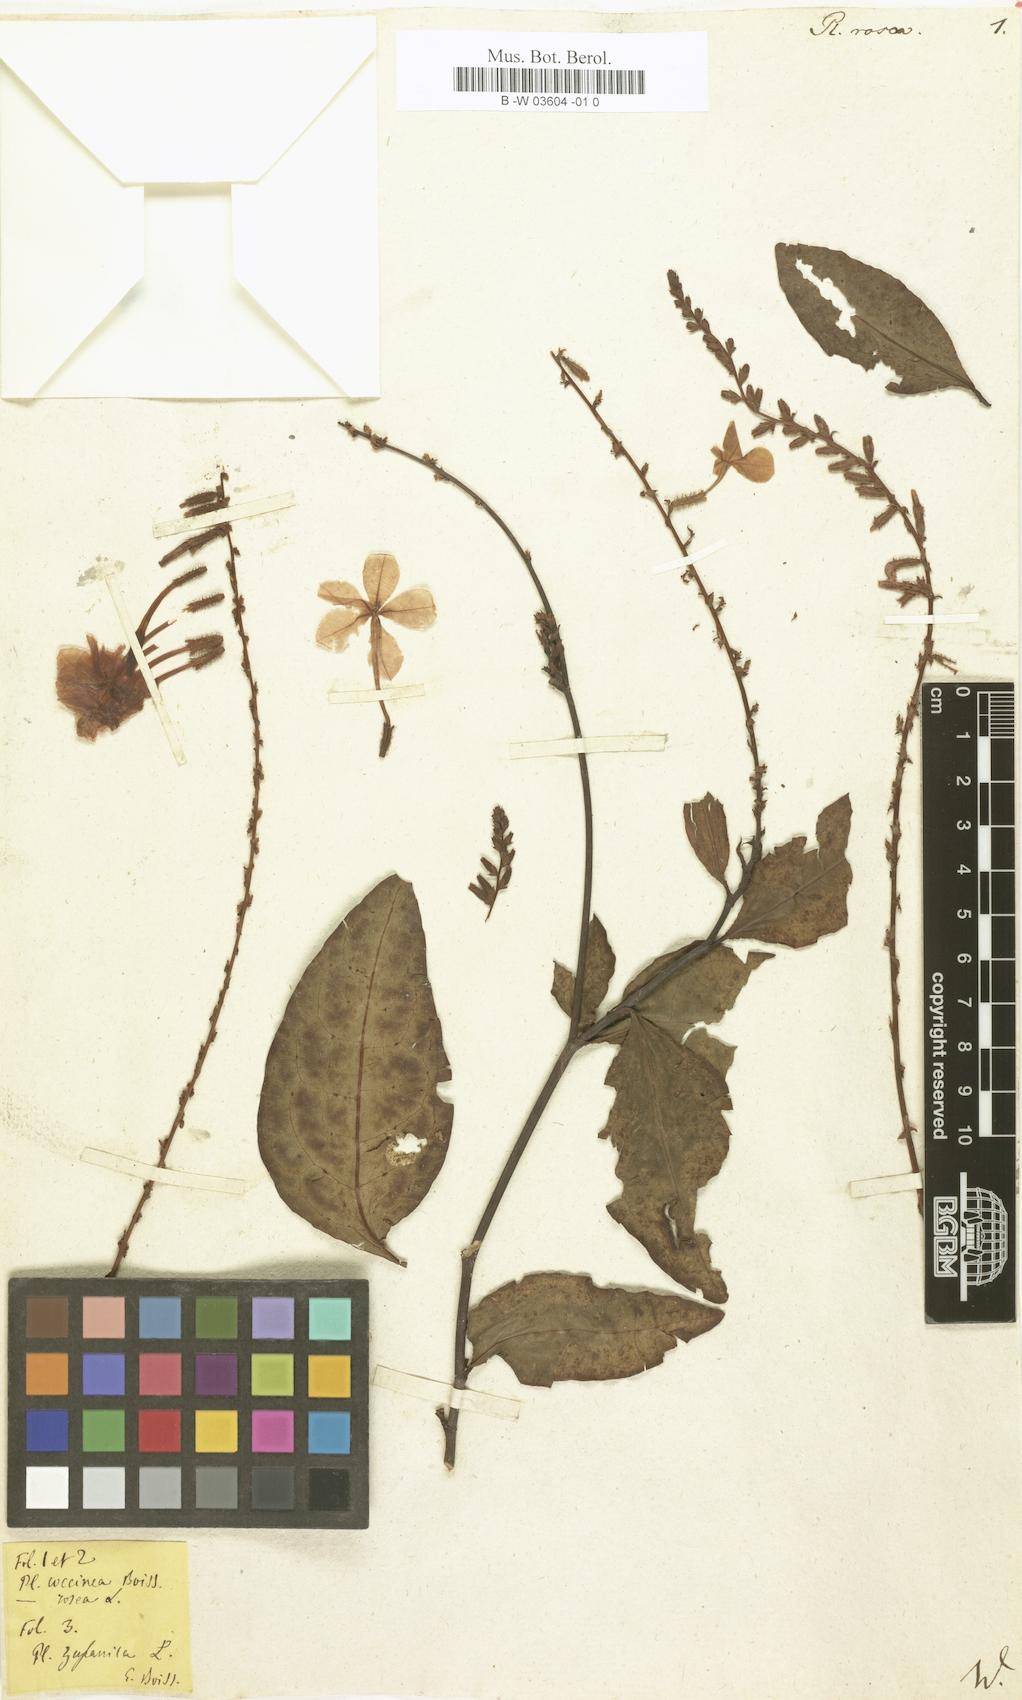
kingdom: Plantae
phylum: Tracheophyta
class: Magnoliopsida
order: Caryophyllales
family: Plumbaginaceae
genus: Plumbago
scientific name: Plumbago indica
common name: Indian leadwort
